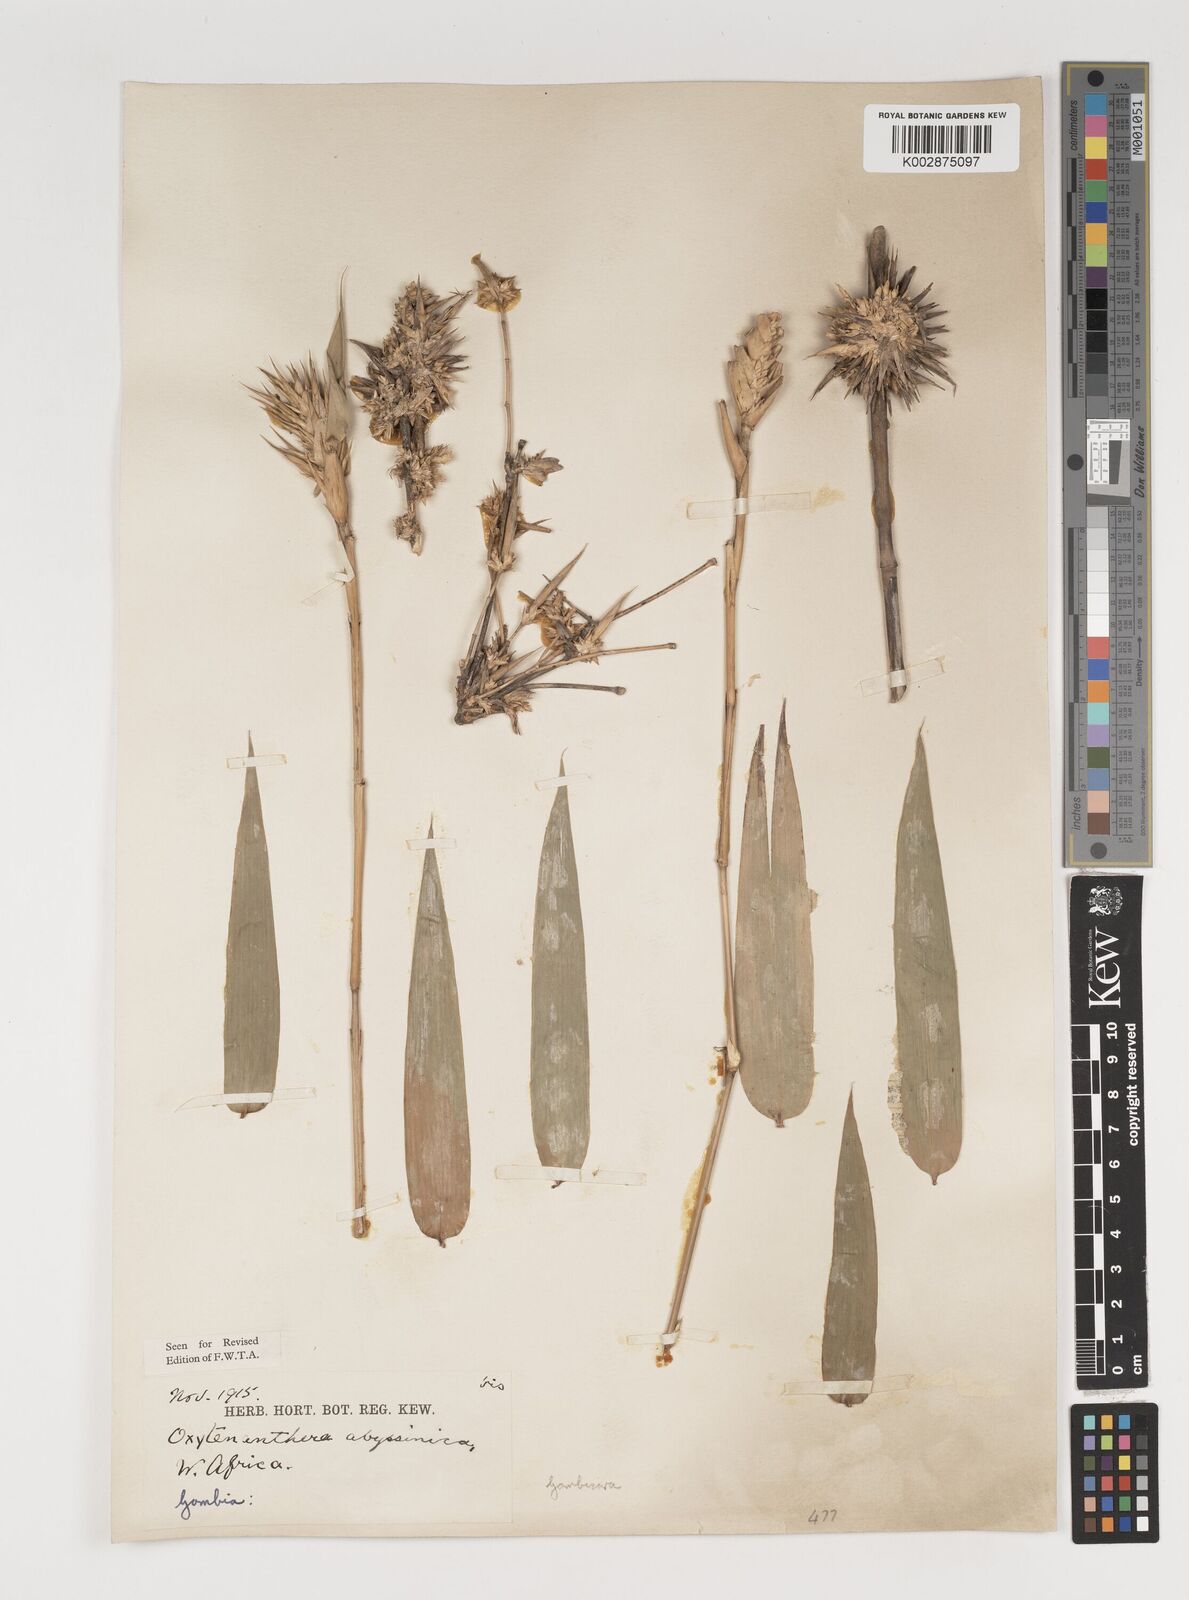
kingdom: Plantae
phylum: Tracheophyta
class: Liliopsida
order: Poales
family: Poaceae
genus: Oxytenanthera
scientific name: Oxytenanthera abyssinica
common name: Wine bamboo
